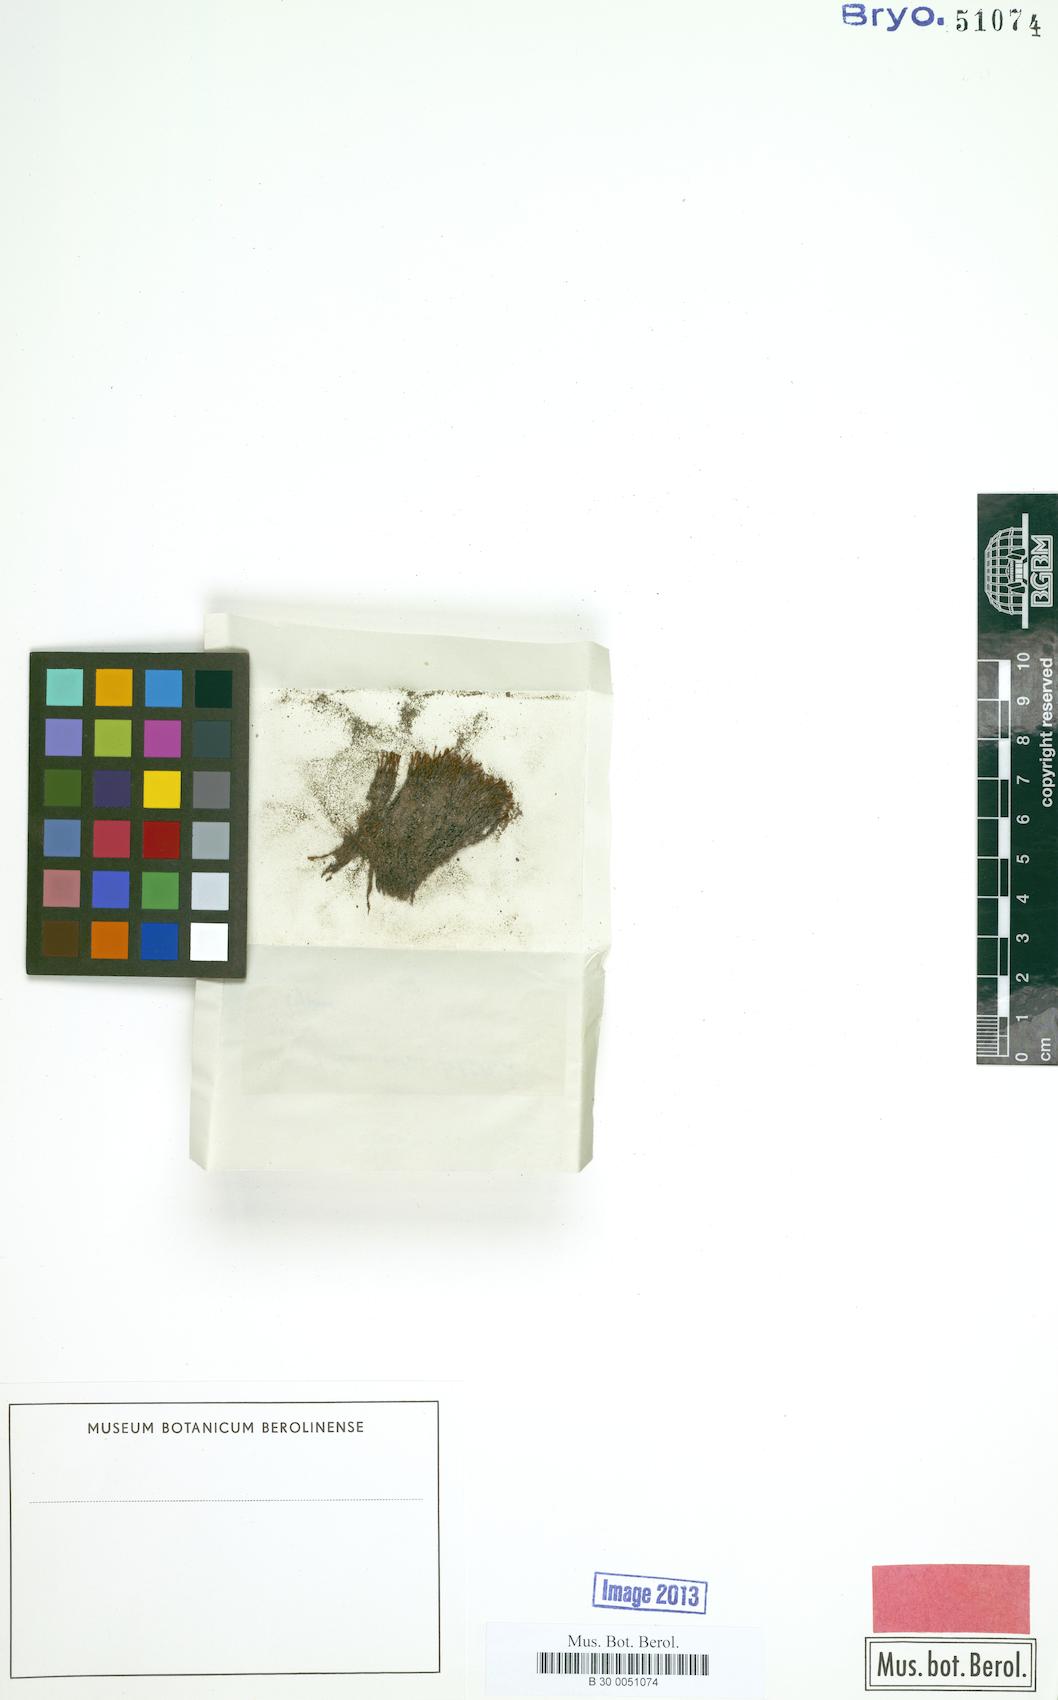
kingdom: Plantae
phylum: Bryophyta
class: Bryopsida
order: Pottiales
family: Pottiaceae
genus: Didymodon
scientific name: Didymodon schilleri
